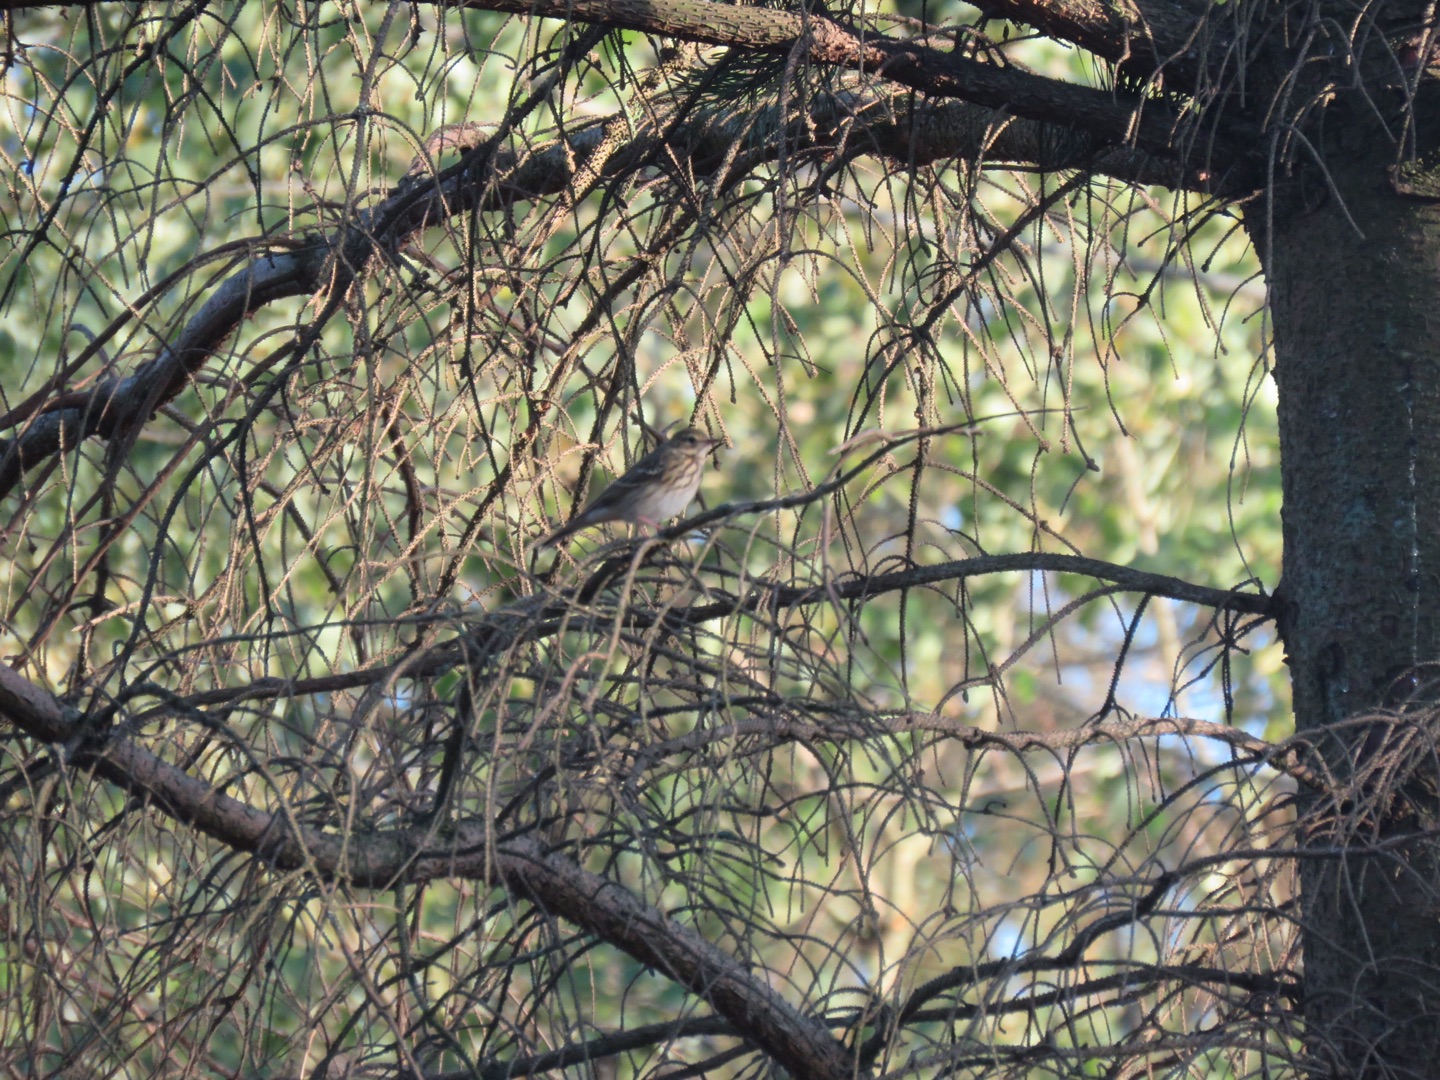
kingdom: Animalia
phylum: Chordata
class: Aves
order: Passeriformes
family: Motacillidae
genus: Anthus
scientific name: Anthus trivialis
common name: Skovpiber
